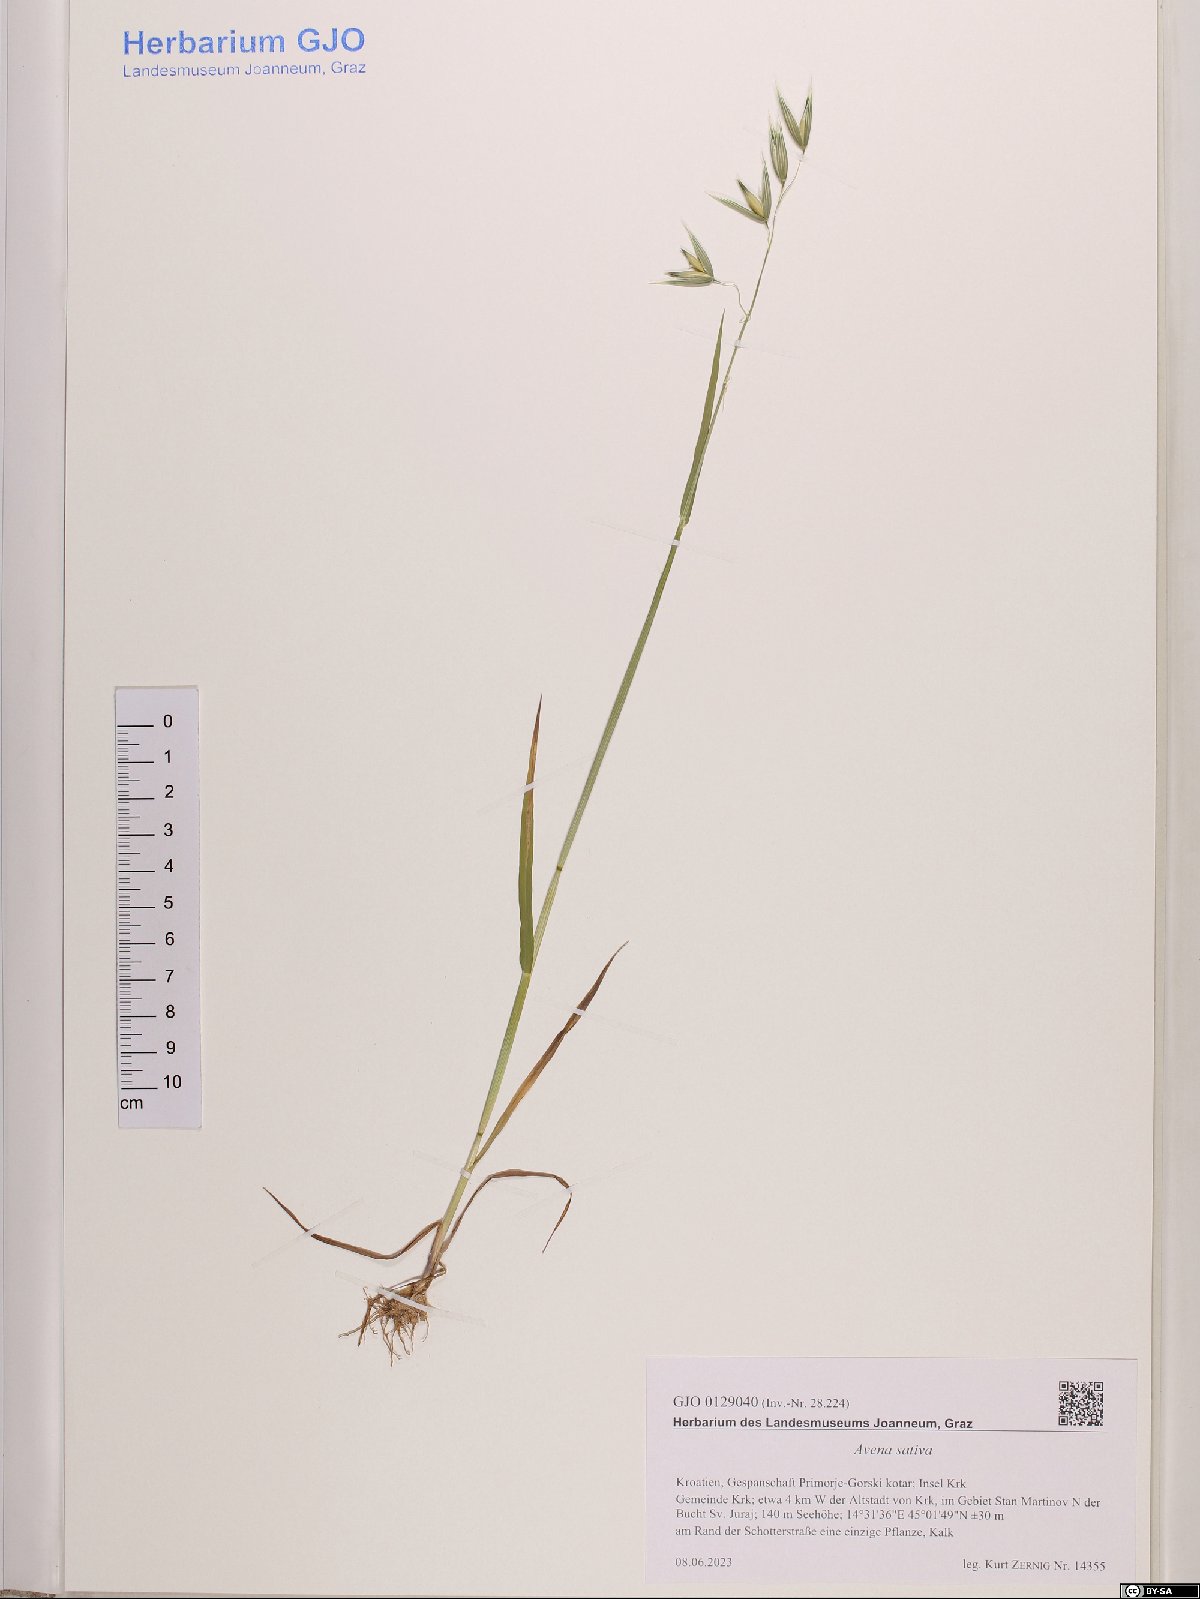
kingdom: Plantae
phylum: Tracheophyta
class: Liliopsida
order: Poales
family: Poaceae
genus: Avena
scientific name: Avena sativa
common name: Oat
